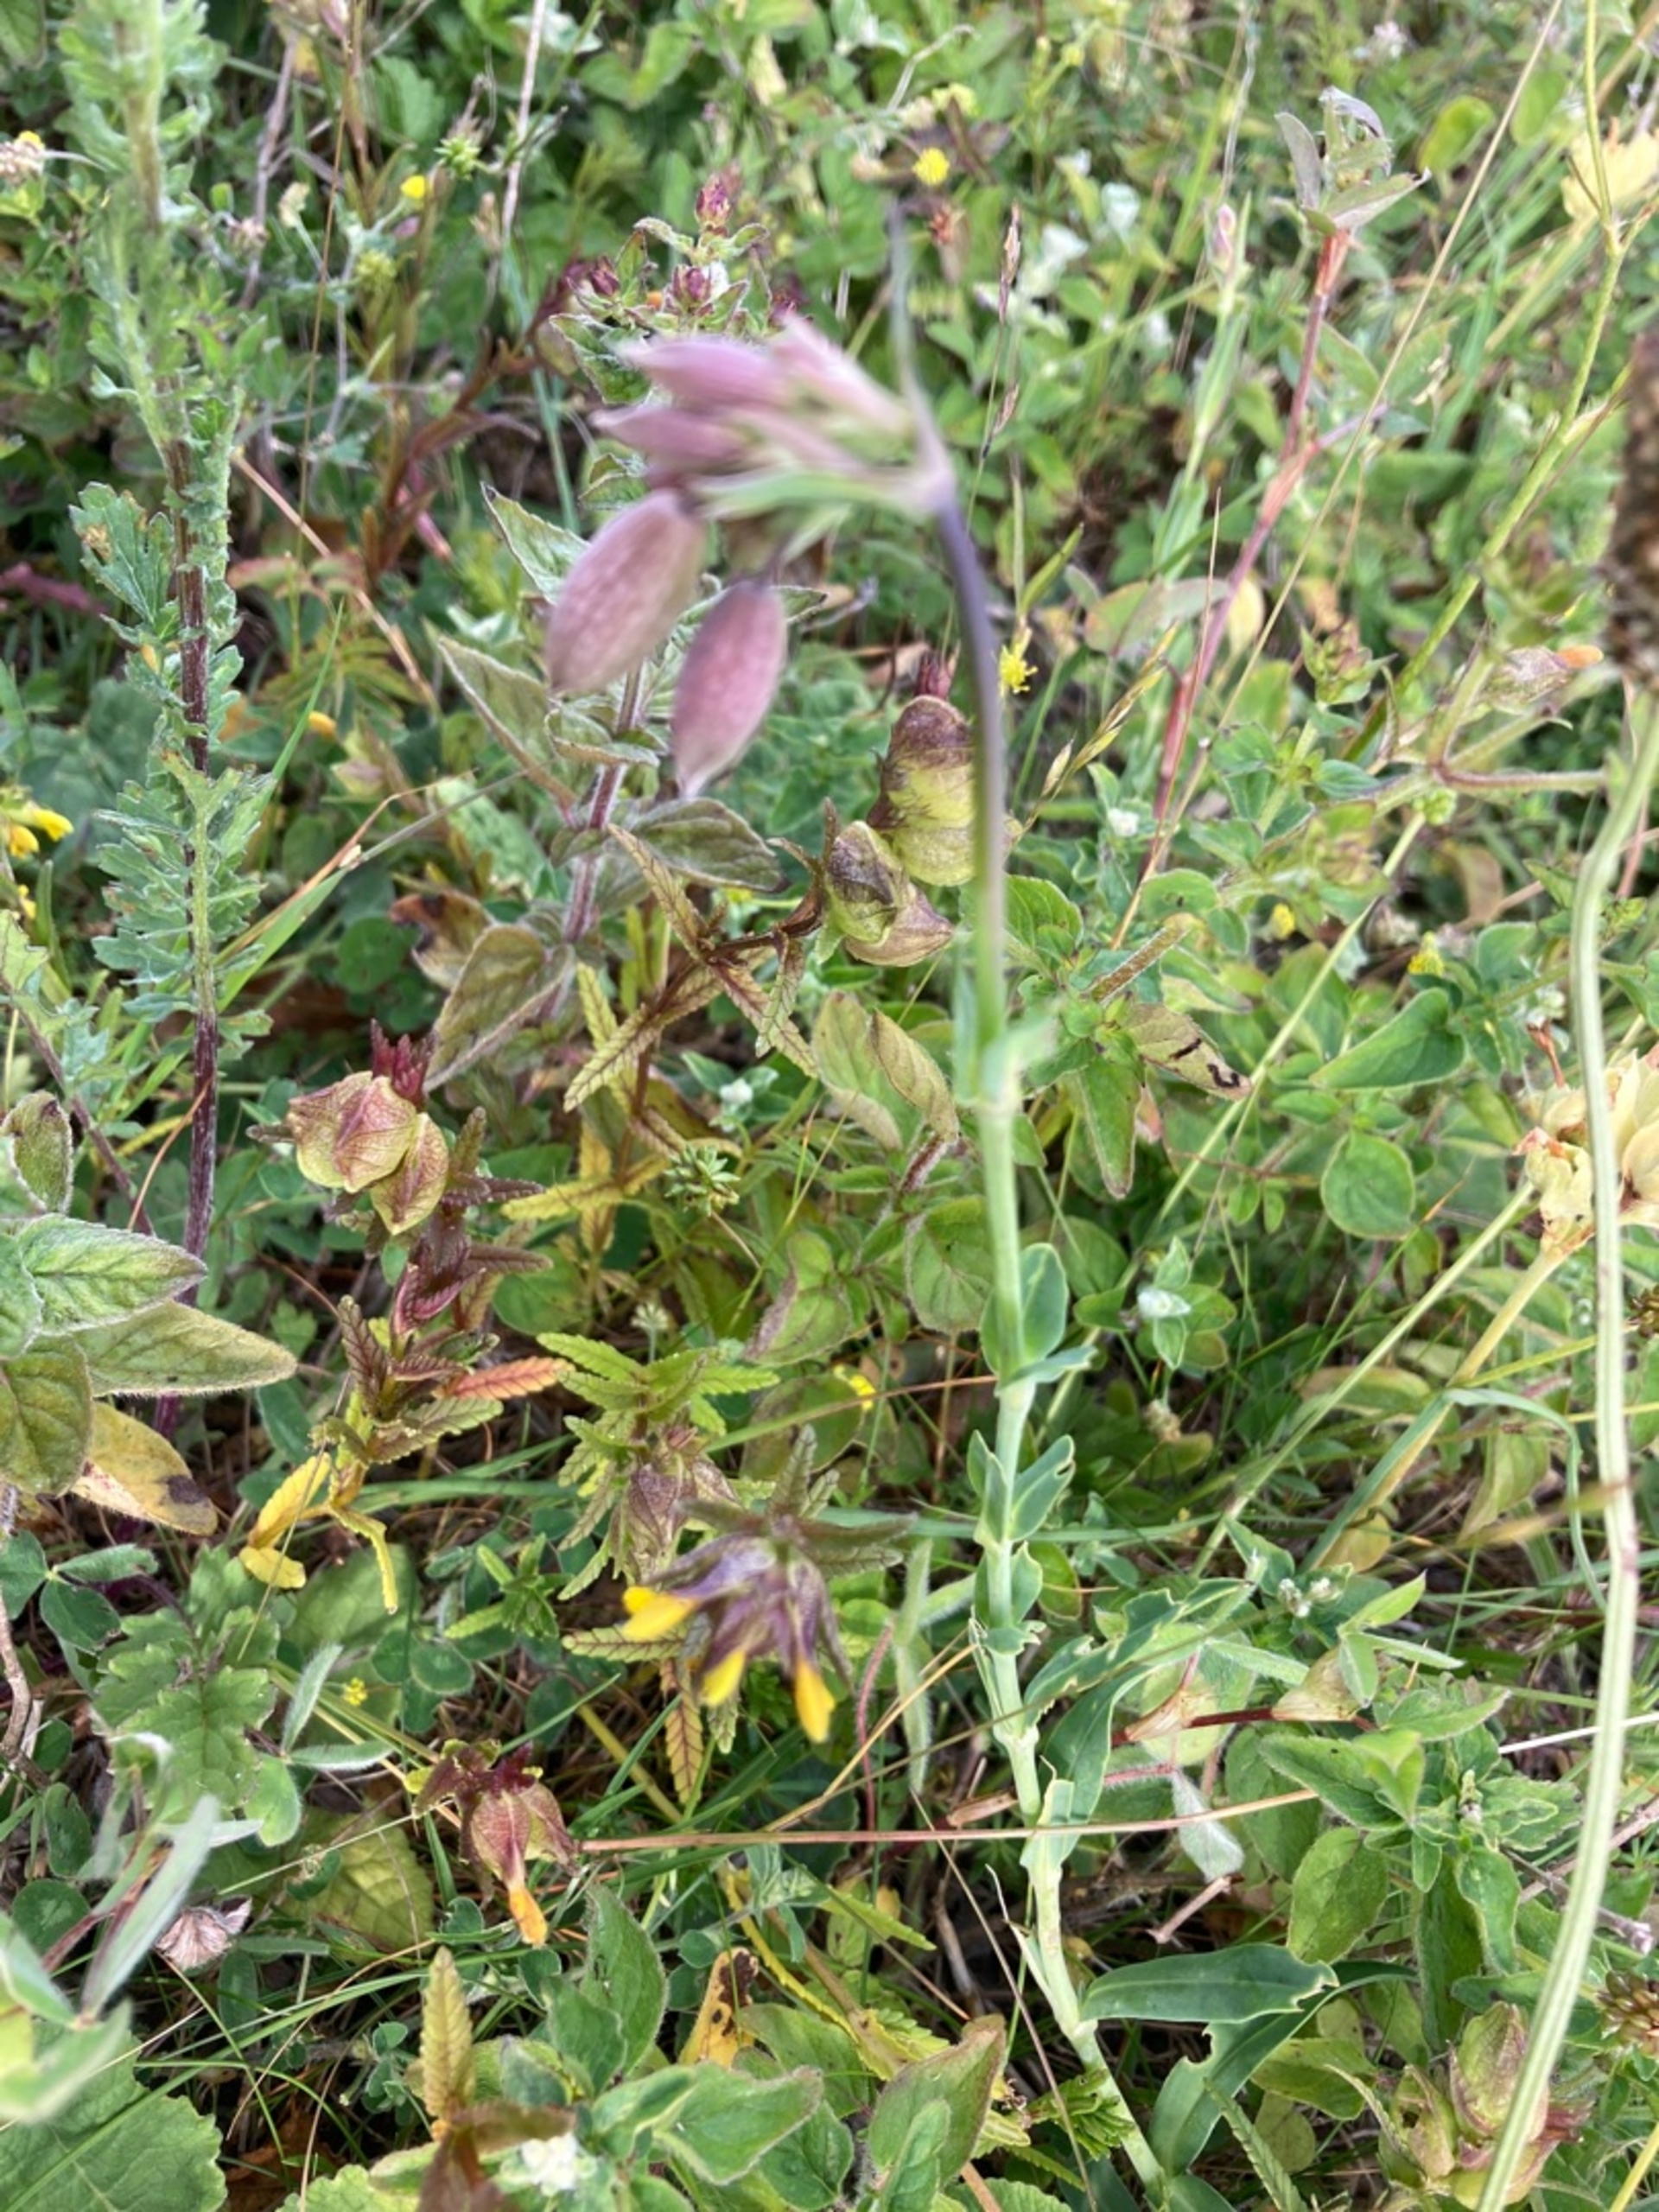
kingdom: Plantae
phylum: Tracheophyta
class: Magnoliopsida
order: Caryophyllales
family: Caryophyllaceae
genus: Silene
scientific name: Silene vulgaris
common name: Blæresmælde
